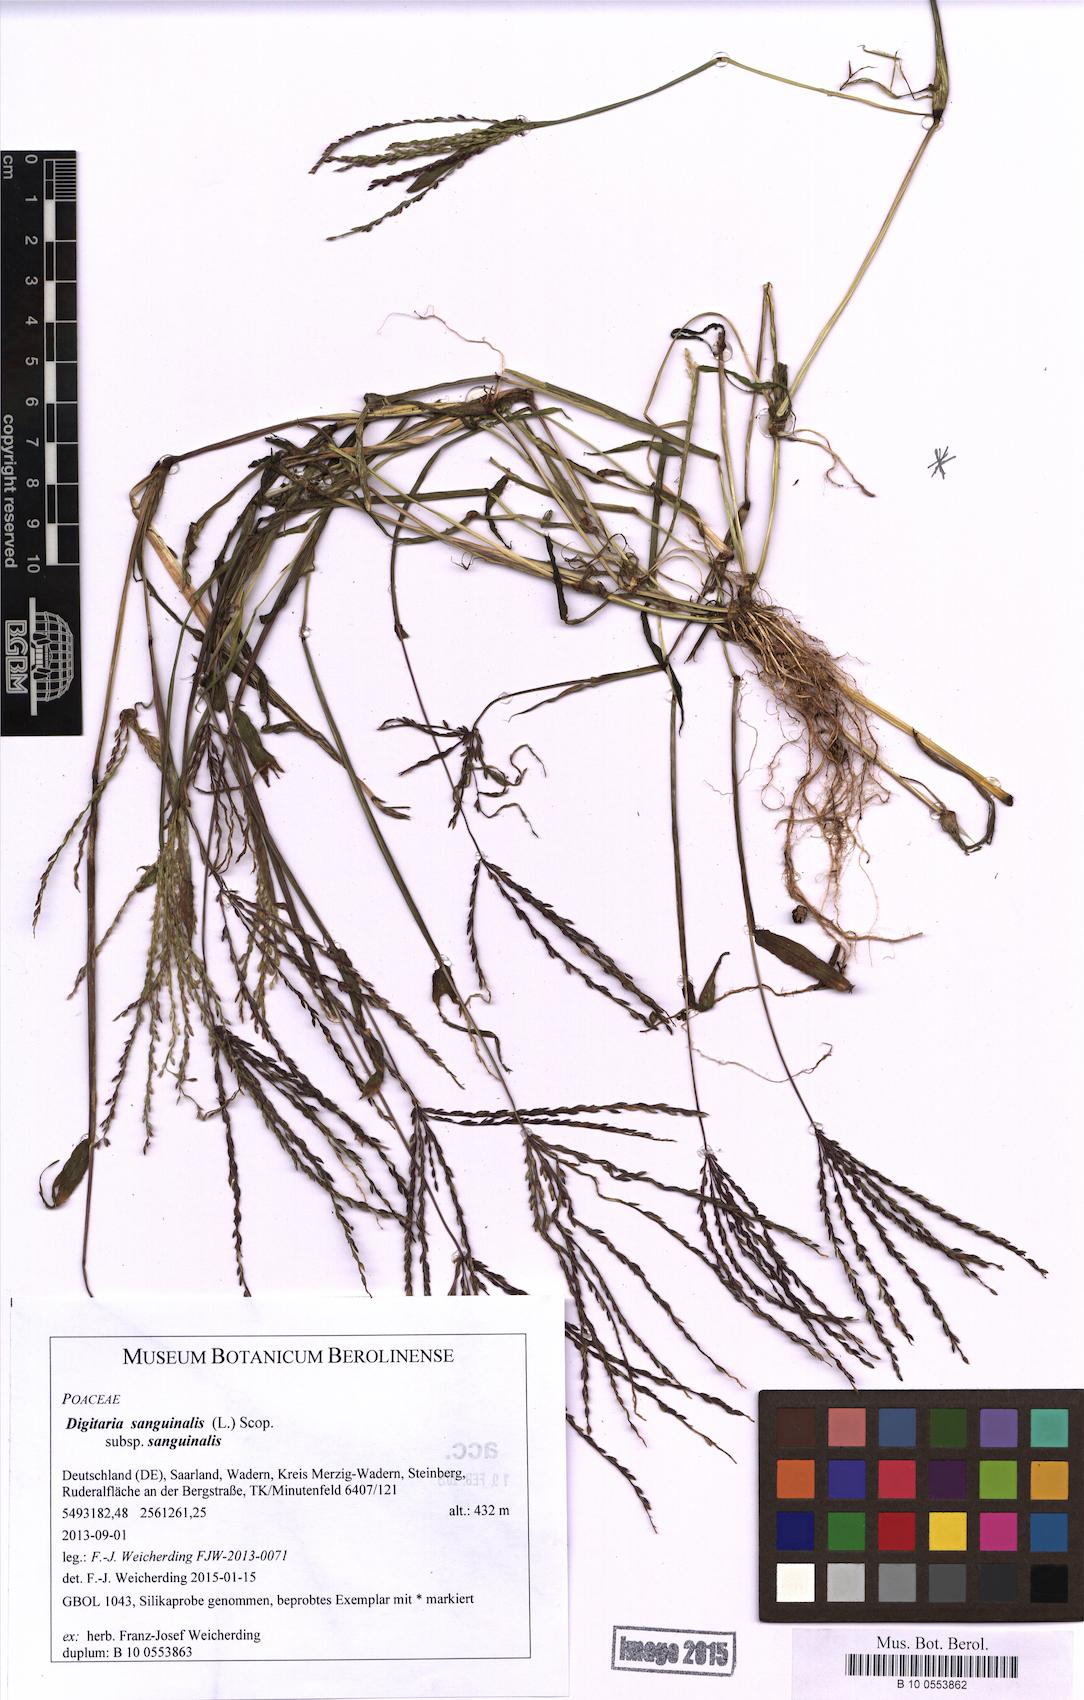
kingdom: Plantae
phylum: Tracheophyta
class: Liliopsida
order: Poales
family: Poaceae
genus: Digitaria
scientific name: Digitaria sanguinalis
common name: Hairy crabgrass
